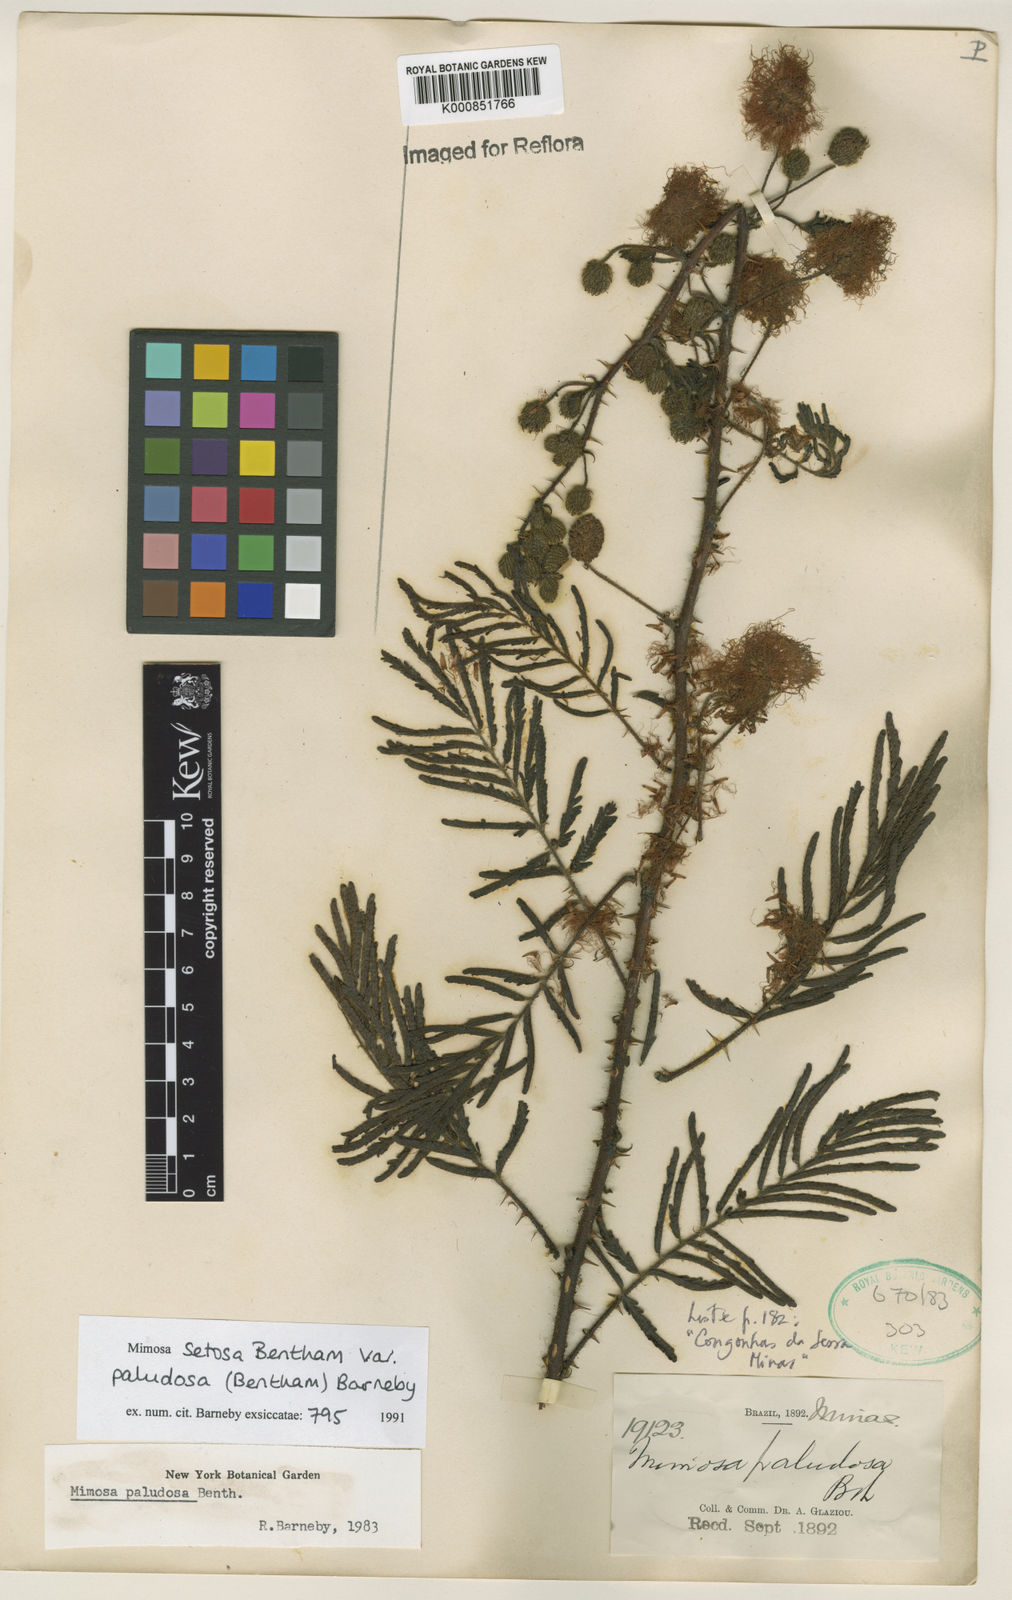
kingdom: Plantae
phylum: Tracheophyta
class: Magnoliopsida
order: Fabales
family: Fabaceae
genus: Mimosa
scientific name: Mimosa paludosa
